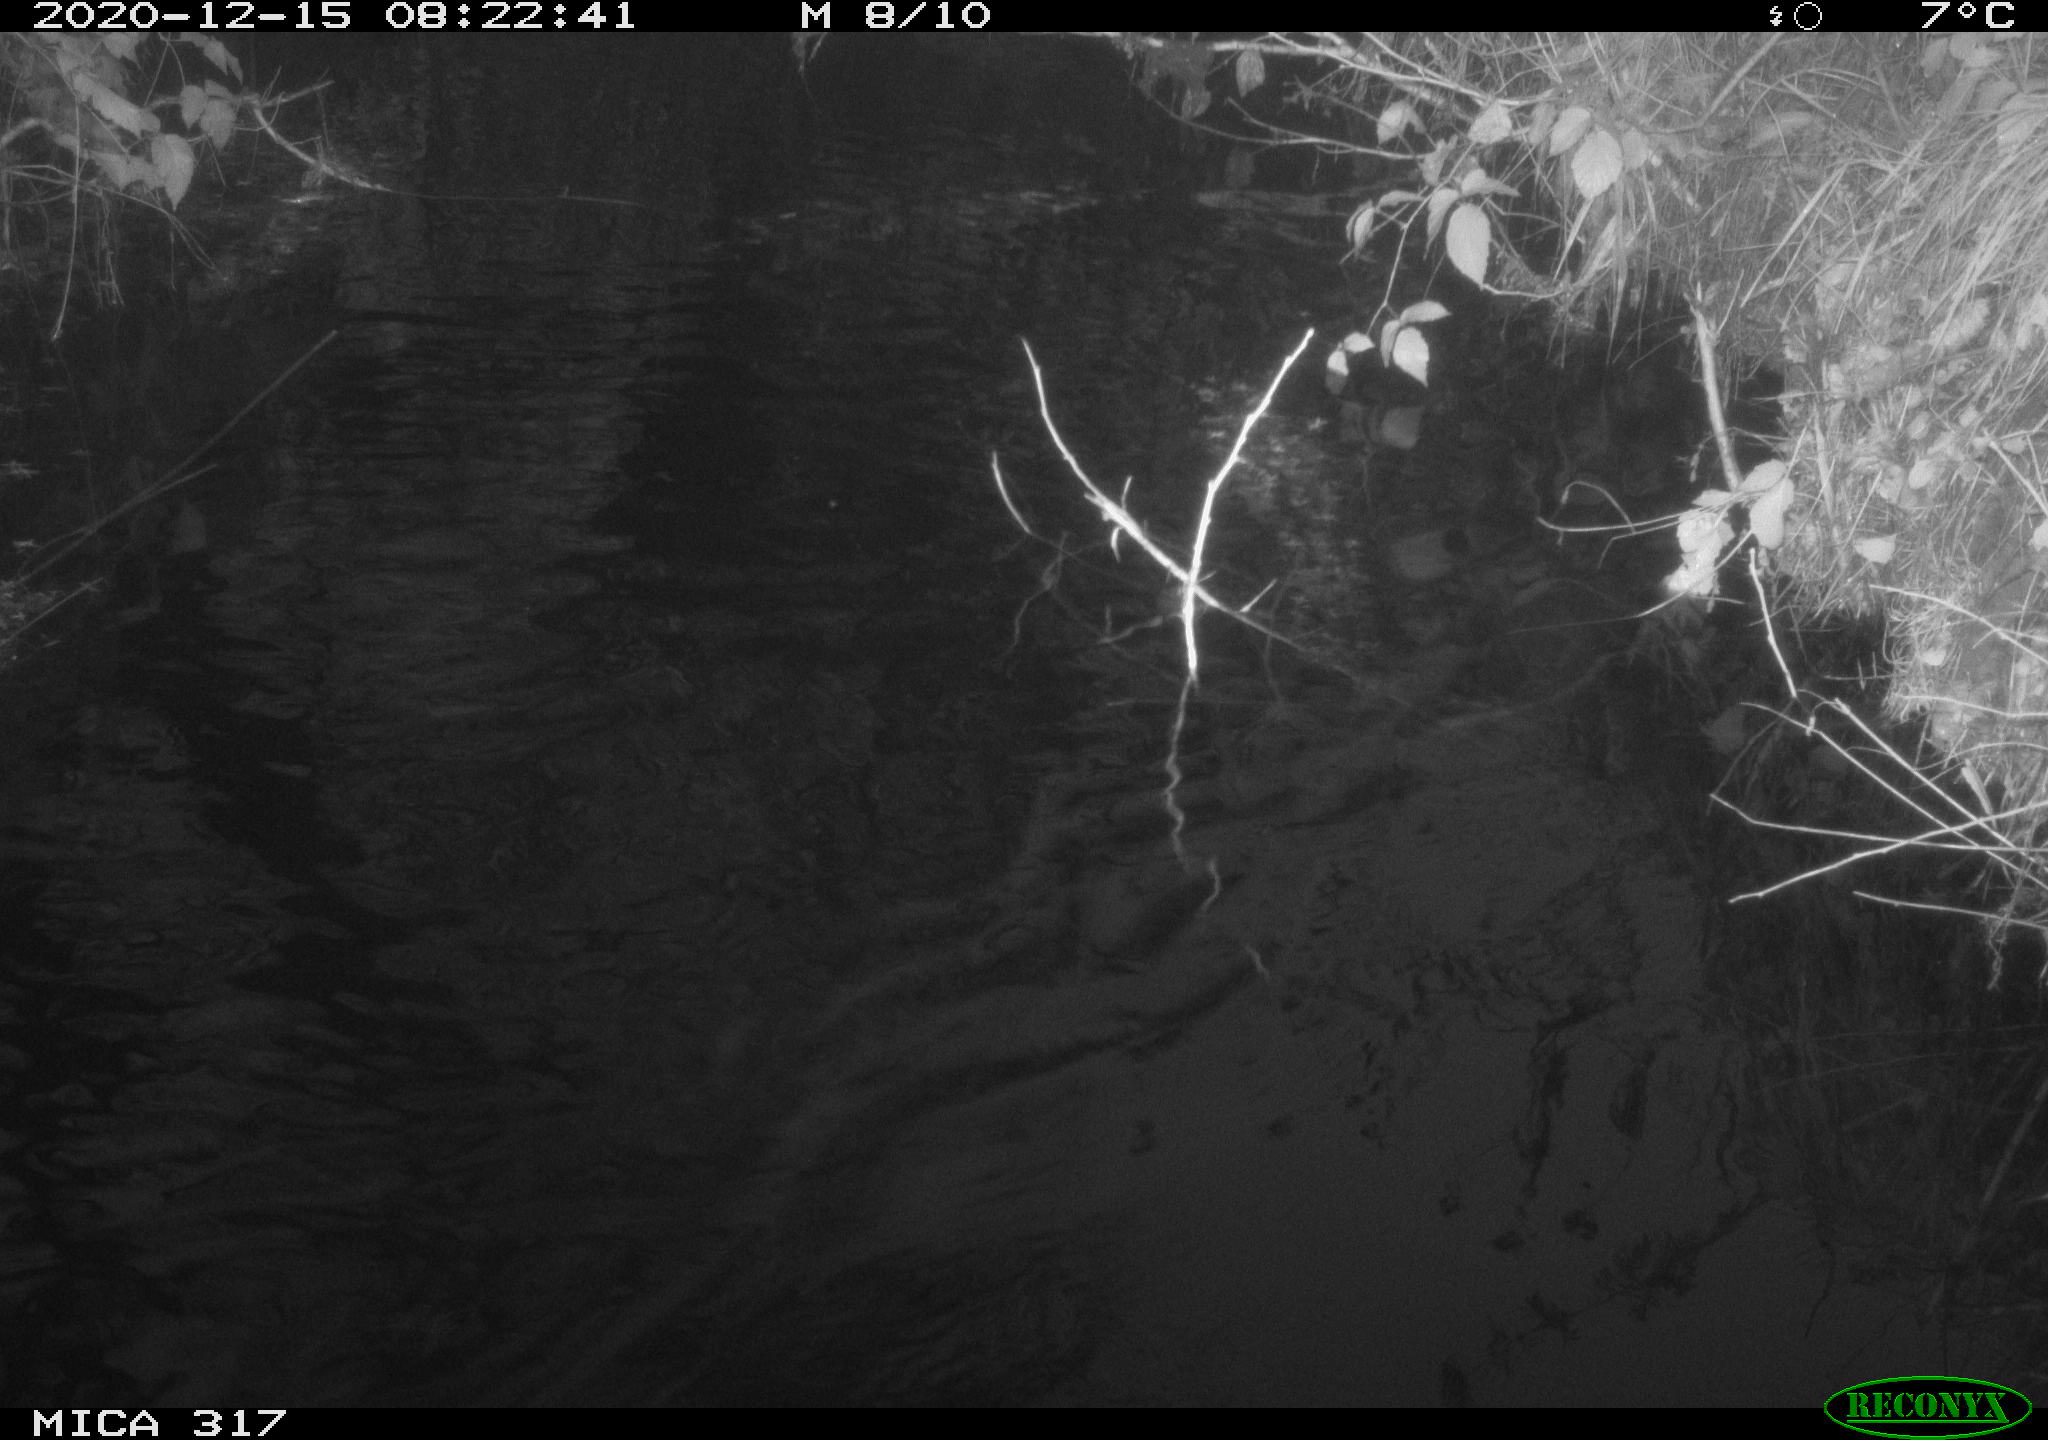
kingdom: Animalia
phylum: Chordata
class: Aves
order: Gruiformes
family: Rallidae
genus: Gallinula
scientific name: Gallinula chloropus
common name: Common moorhen
